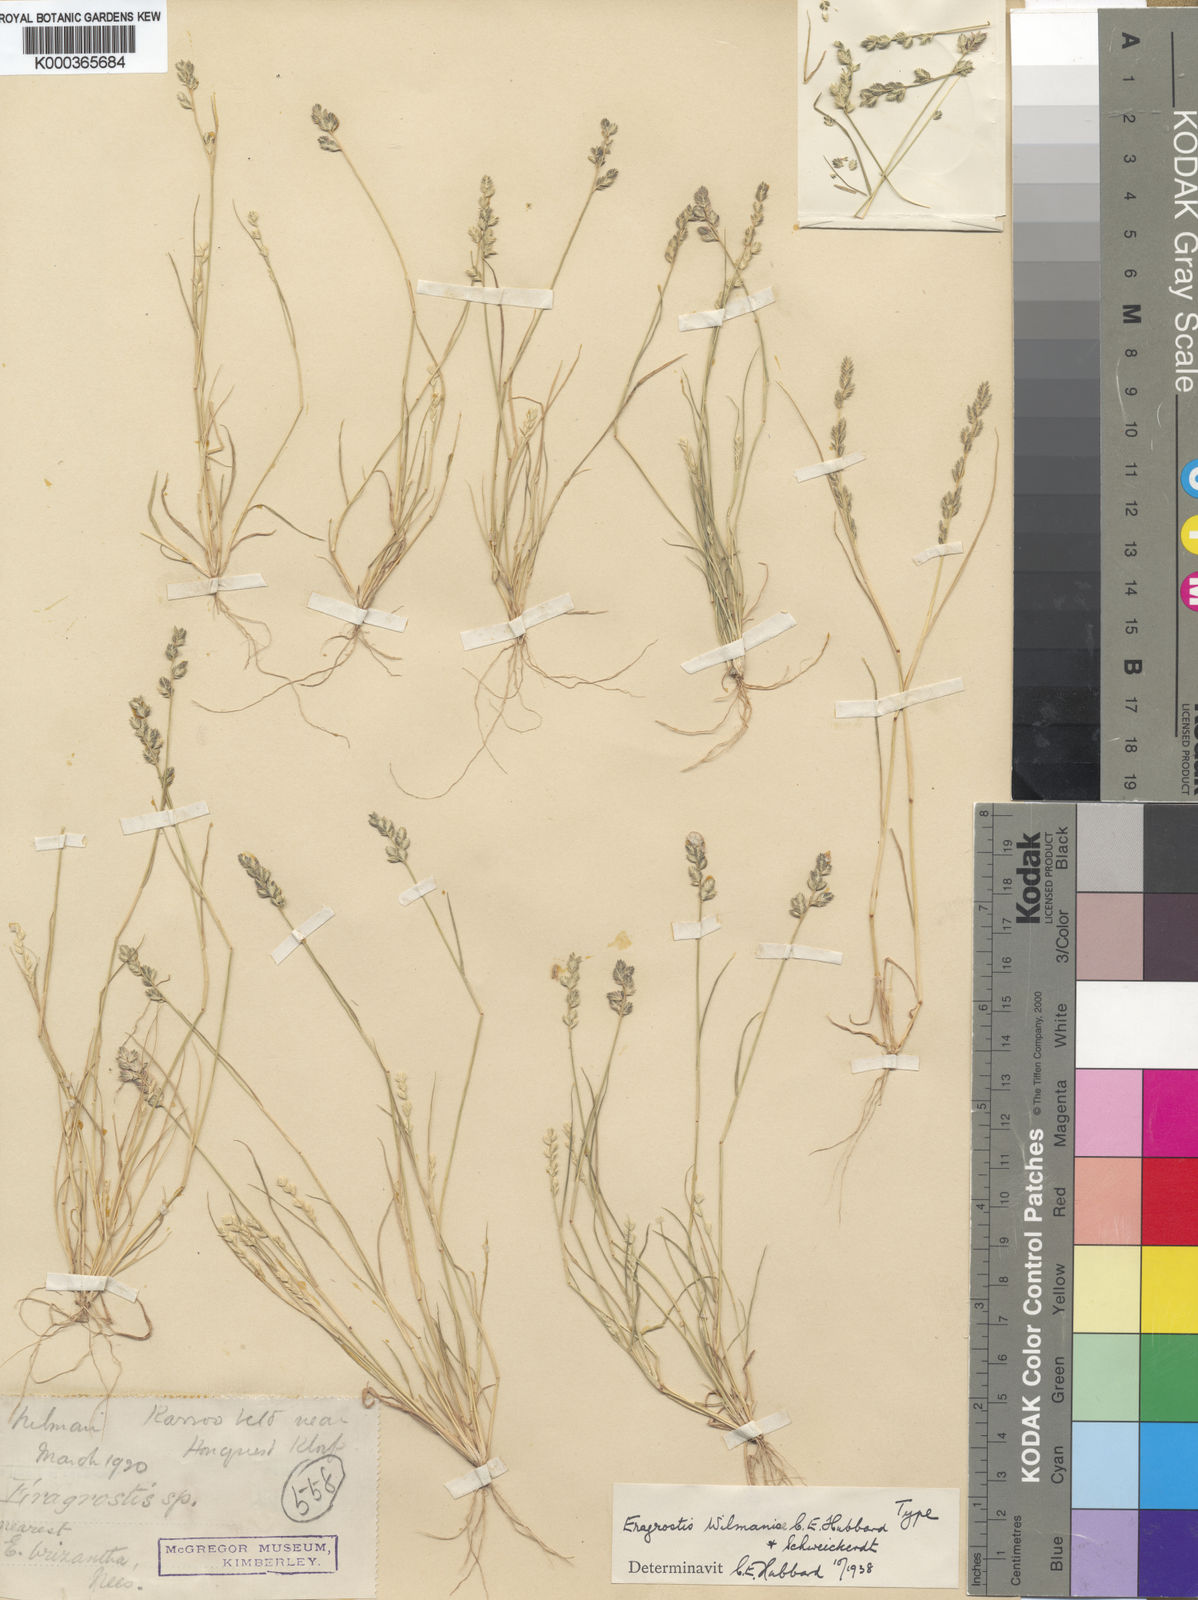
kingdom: Plantae
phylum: Tracheophyta
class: Liliopsida
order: Poales
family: Poaceae
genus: Eragrostis
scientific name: Eragrostis macrochlamys
